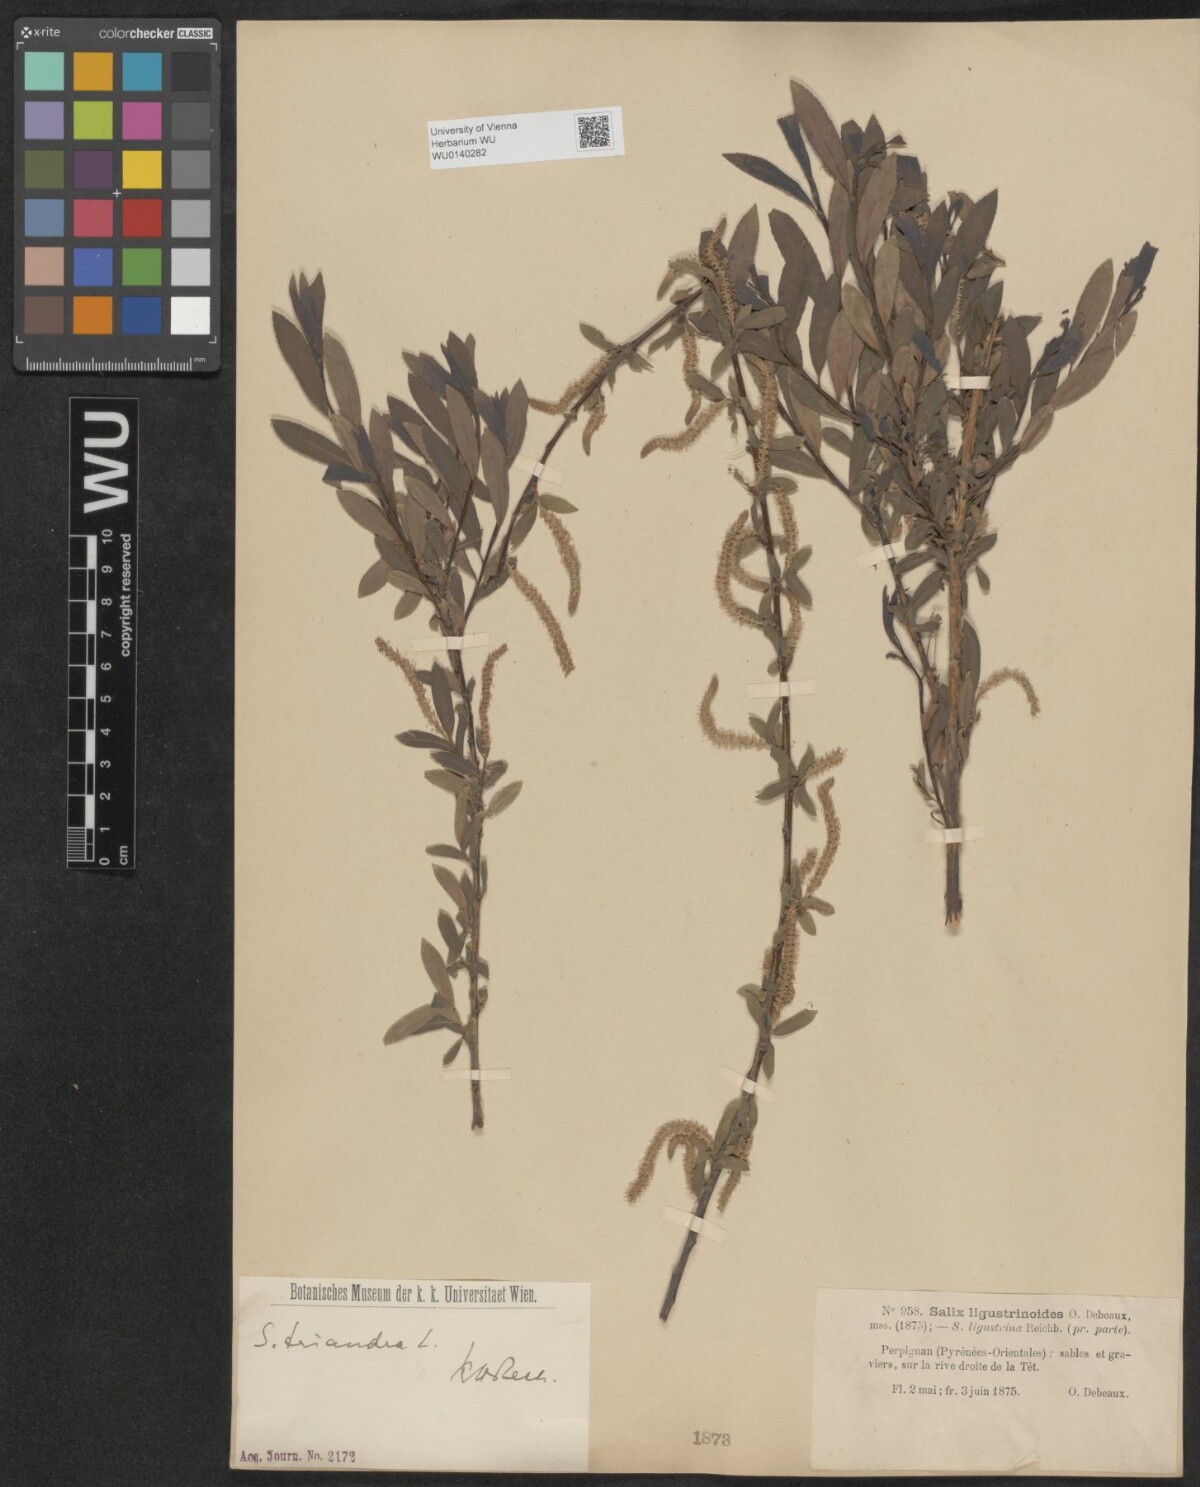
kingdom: Plantae
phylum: Tracheophyta
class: Magnoliopsida
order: Malpighiales
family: Salicaceae
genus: Salix
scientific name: Salix triandra
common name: Almond willow
